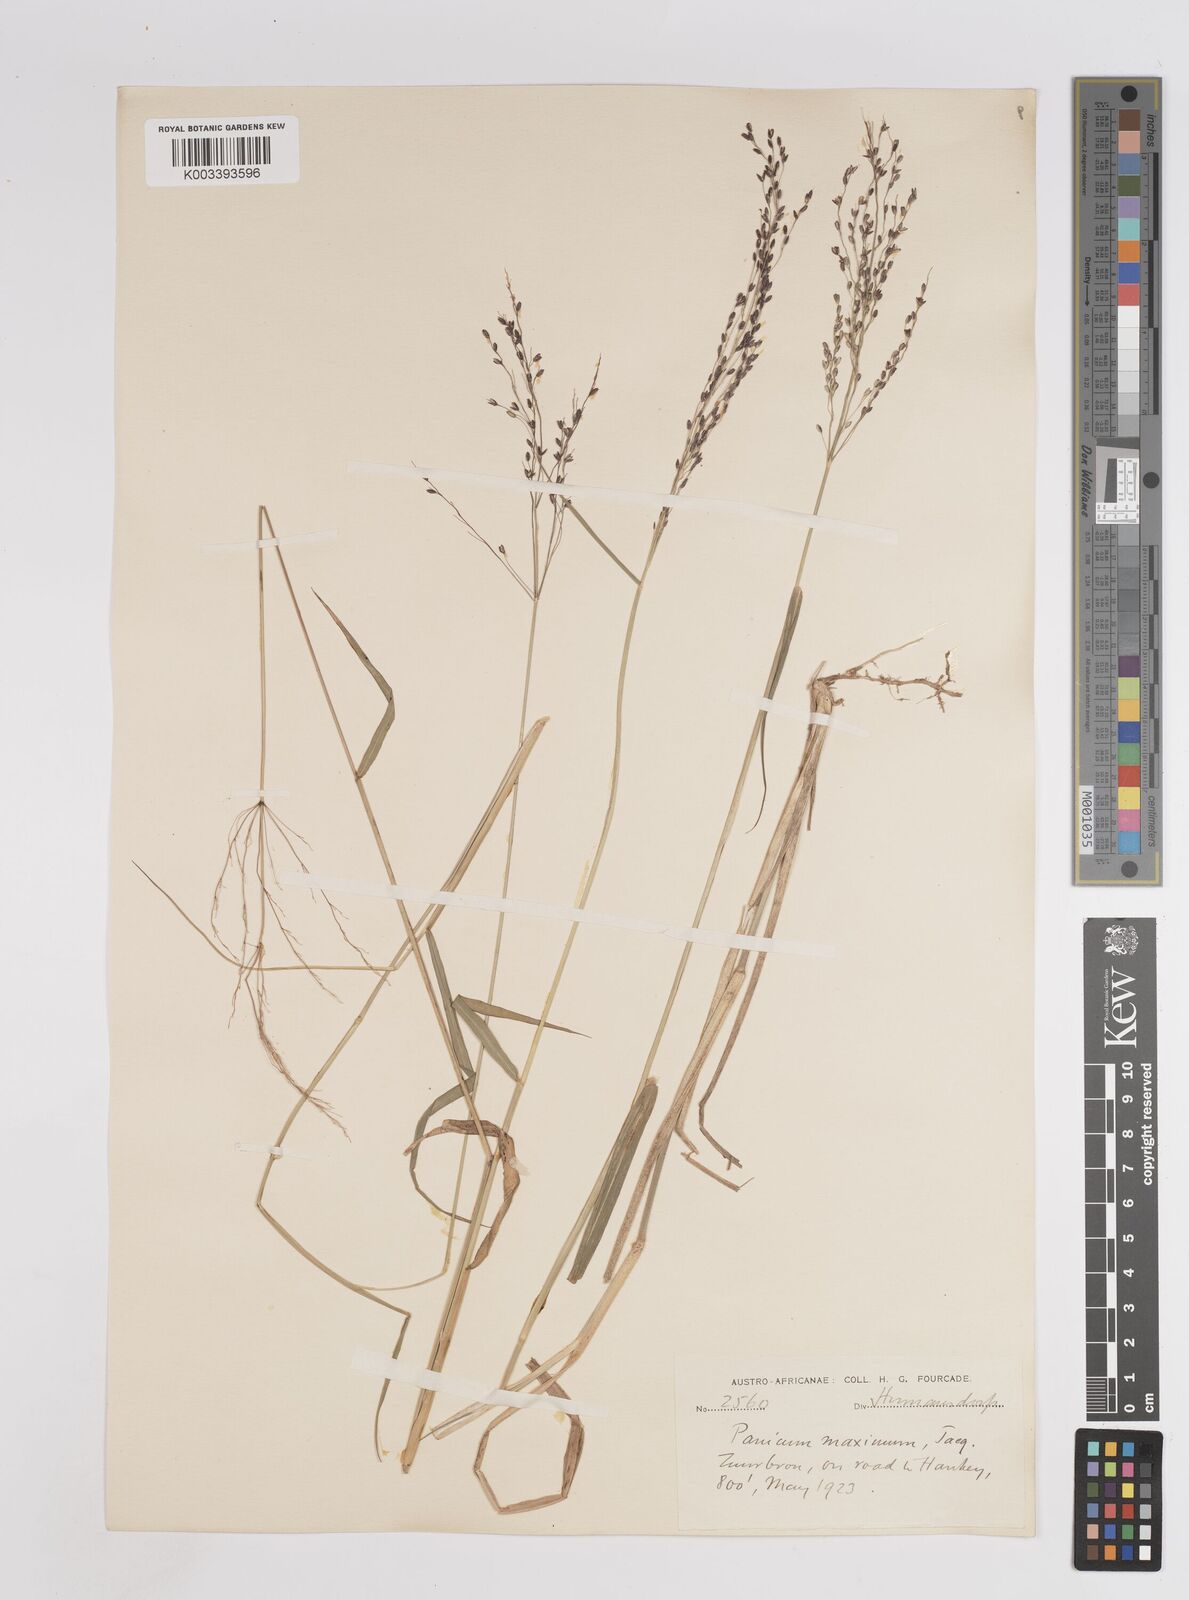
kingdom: Plantae
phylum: Tracheophyta
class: Liliopsida
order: Poales
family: Poaceae
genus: Megathyrsus
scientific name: Megathyrsus maximus
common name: Guineagrass
